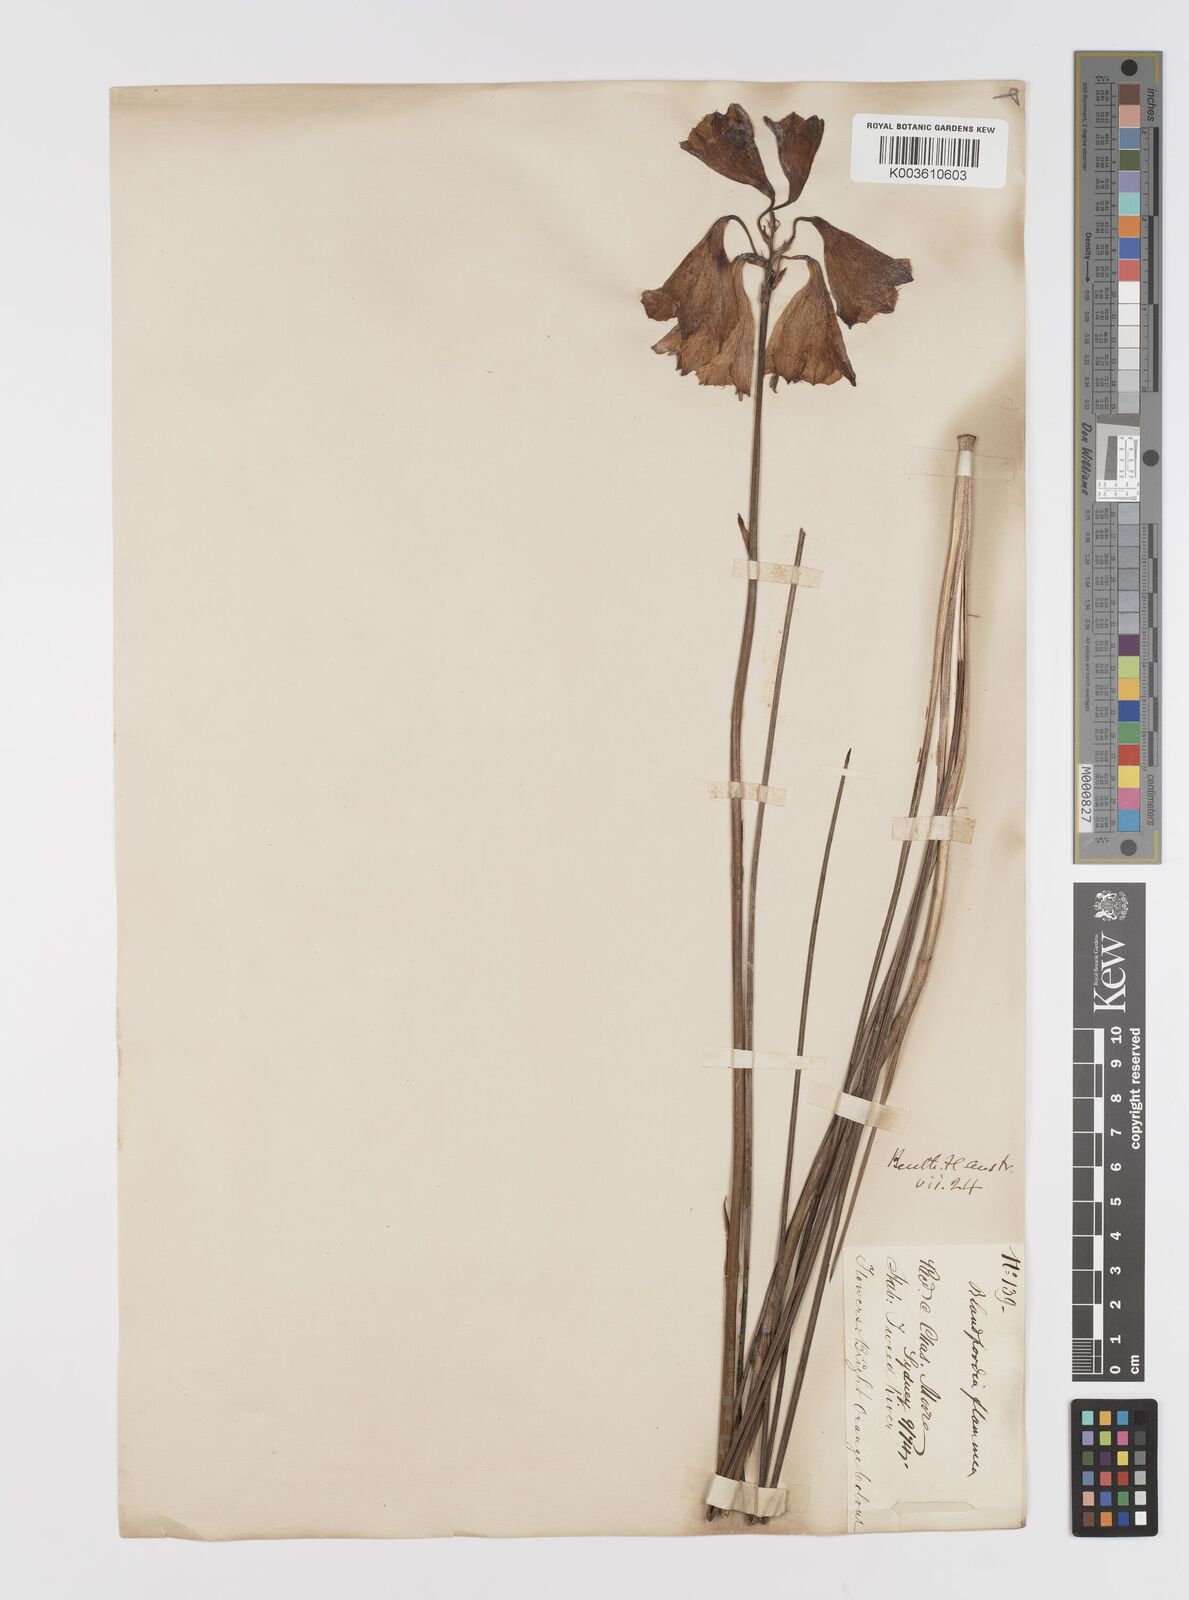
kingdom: Plantae
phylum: Tracheophyta
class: Liliopsida
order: Asparagales
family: Blandfordiaceae
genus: Blandfordia
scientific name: Blandfordia grandiflora
